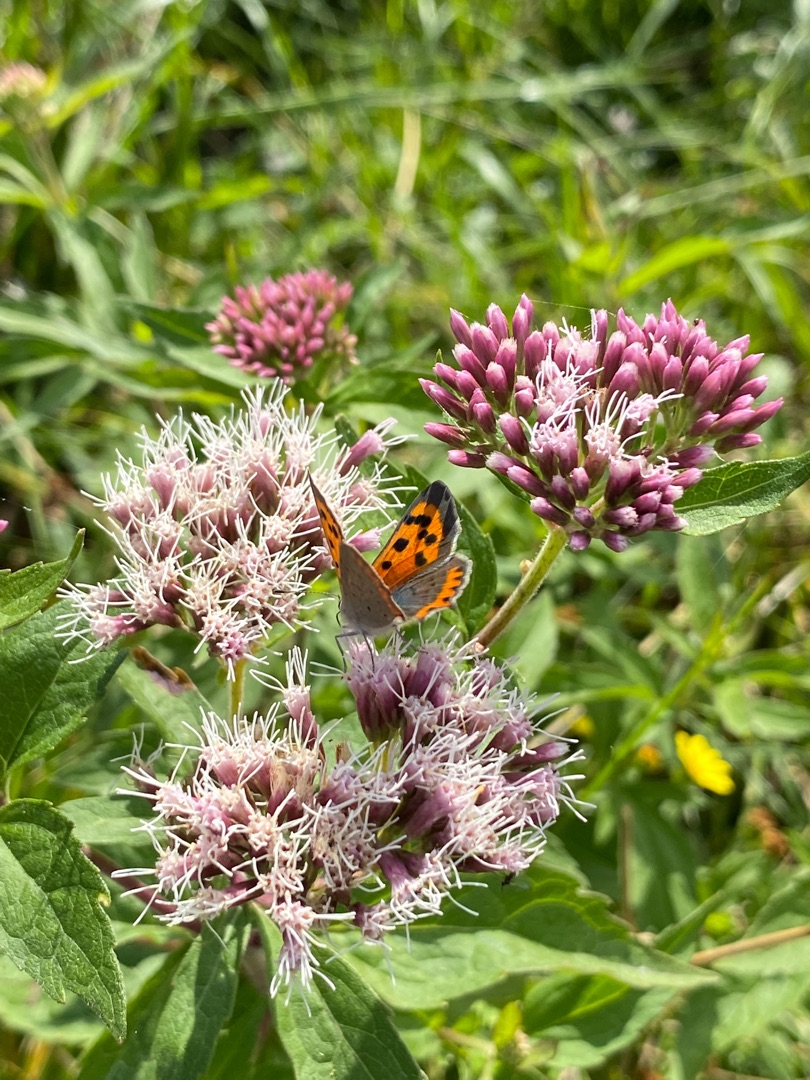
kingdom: Animalia
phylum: Arthropoda
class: Insecta
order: Lepidoptera
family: Lycaenidae
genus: Lycaena
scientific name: Lycaena phlaeas
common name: Lille ildfugl
